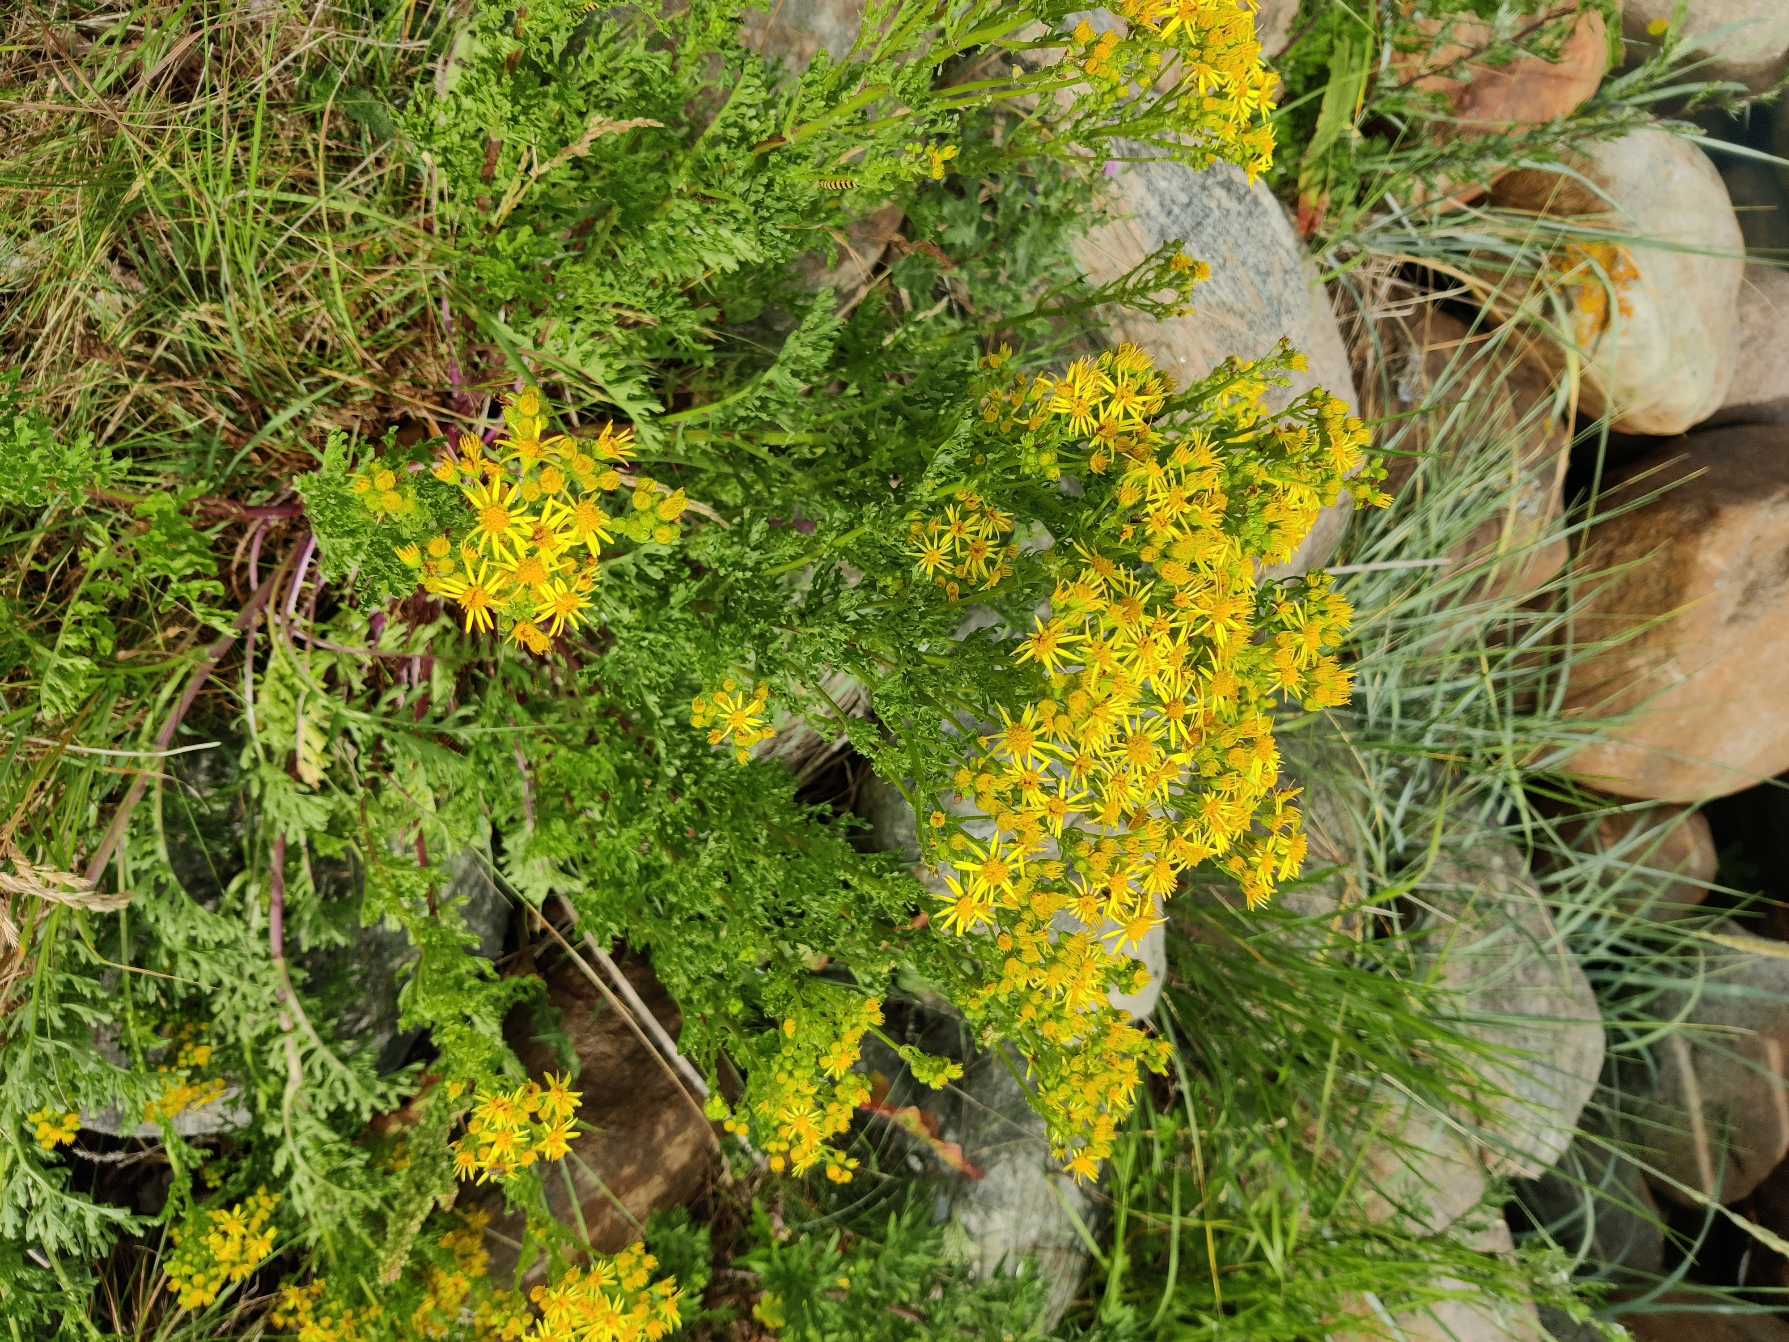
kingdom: Plantae
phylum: Tracheophyta
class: Magnoliopsida
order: Asterales
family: Asteraceae
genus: Jacobaea
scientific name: Jacobaea vulgaris
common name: Eng-brandbæger
